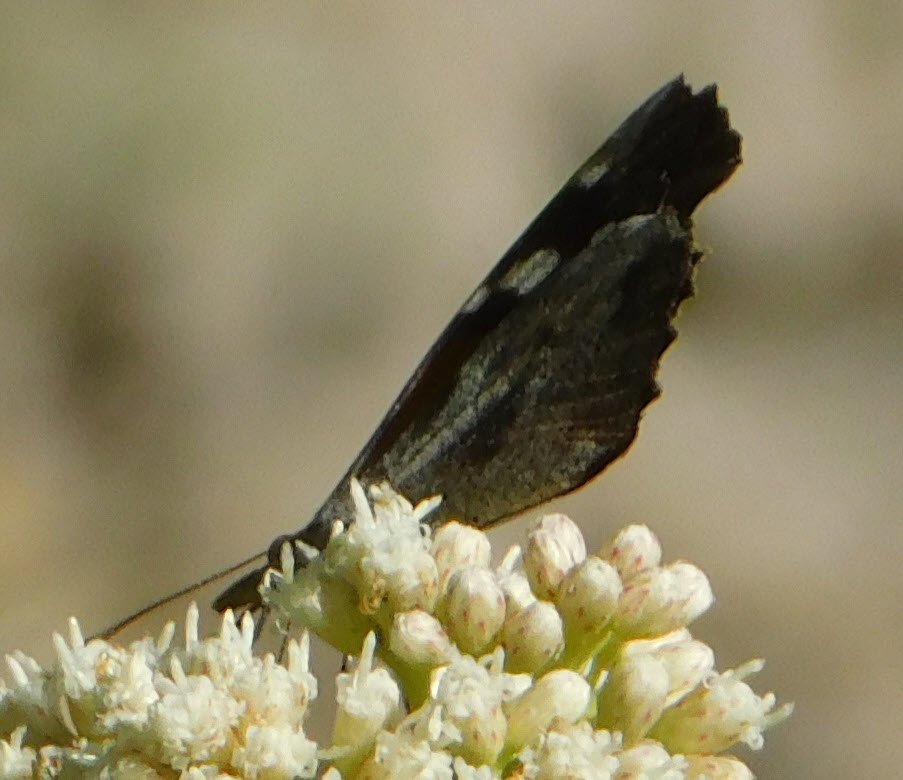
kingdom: Animalia
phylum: Arthropoda
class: Insecta
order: Lepidoptera
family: Nymphalidae
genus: Libytheana
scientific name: Libytheana carinenta
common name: American Snout
